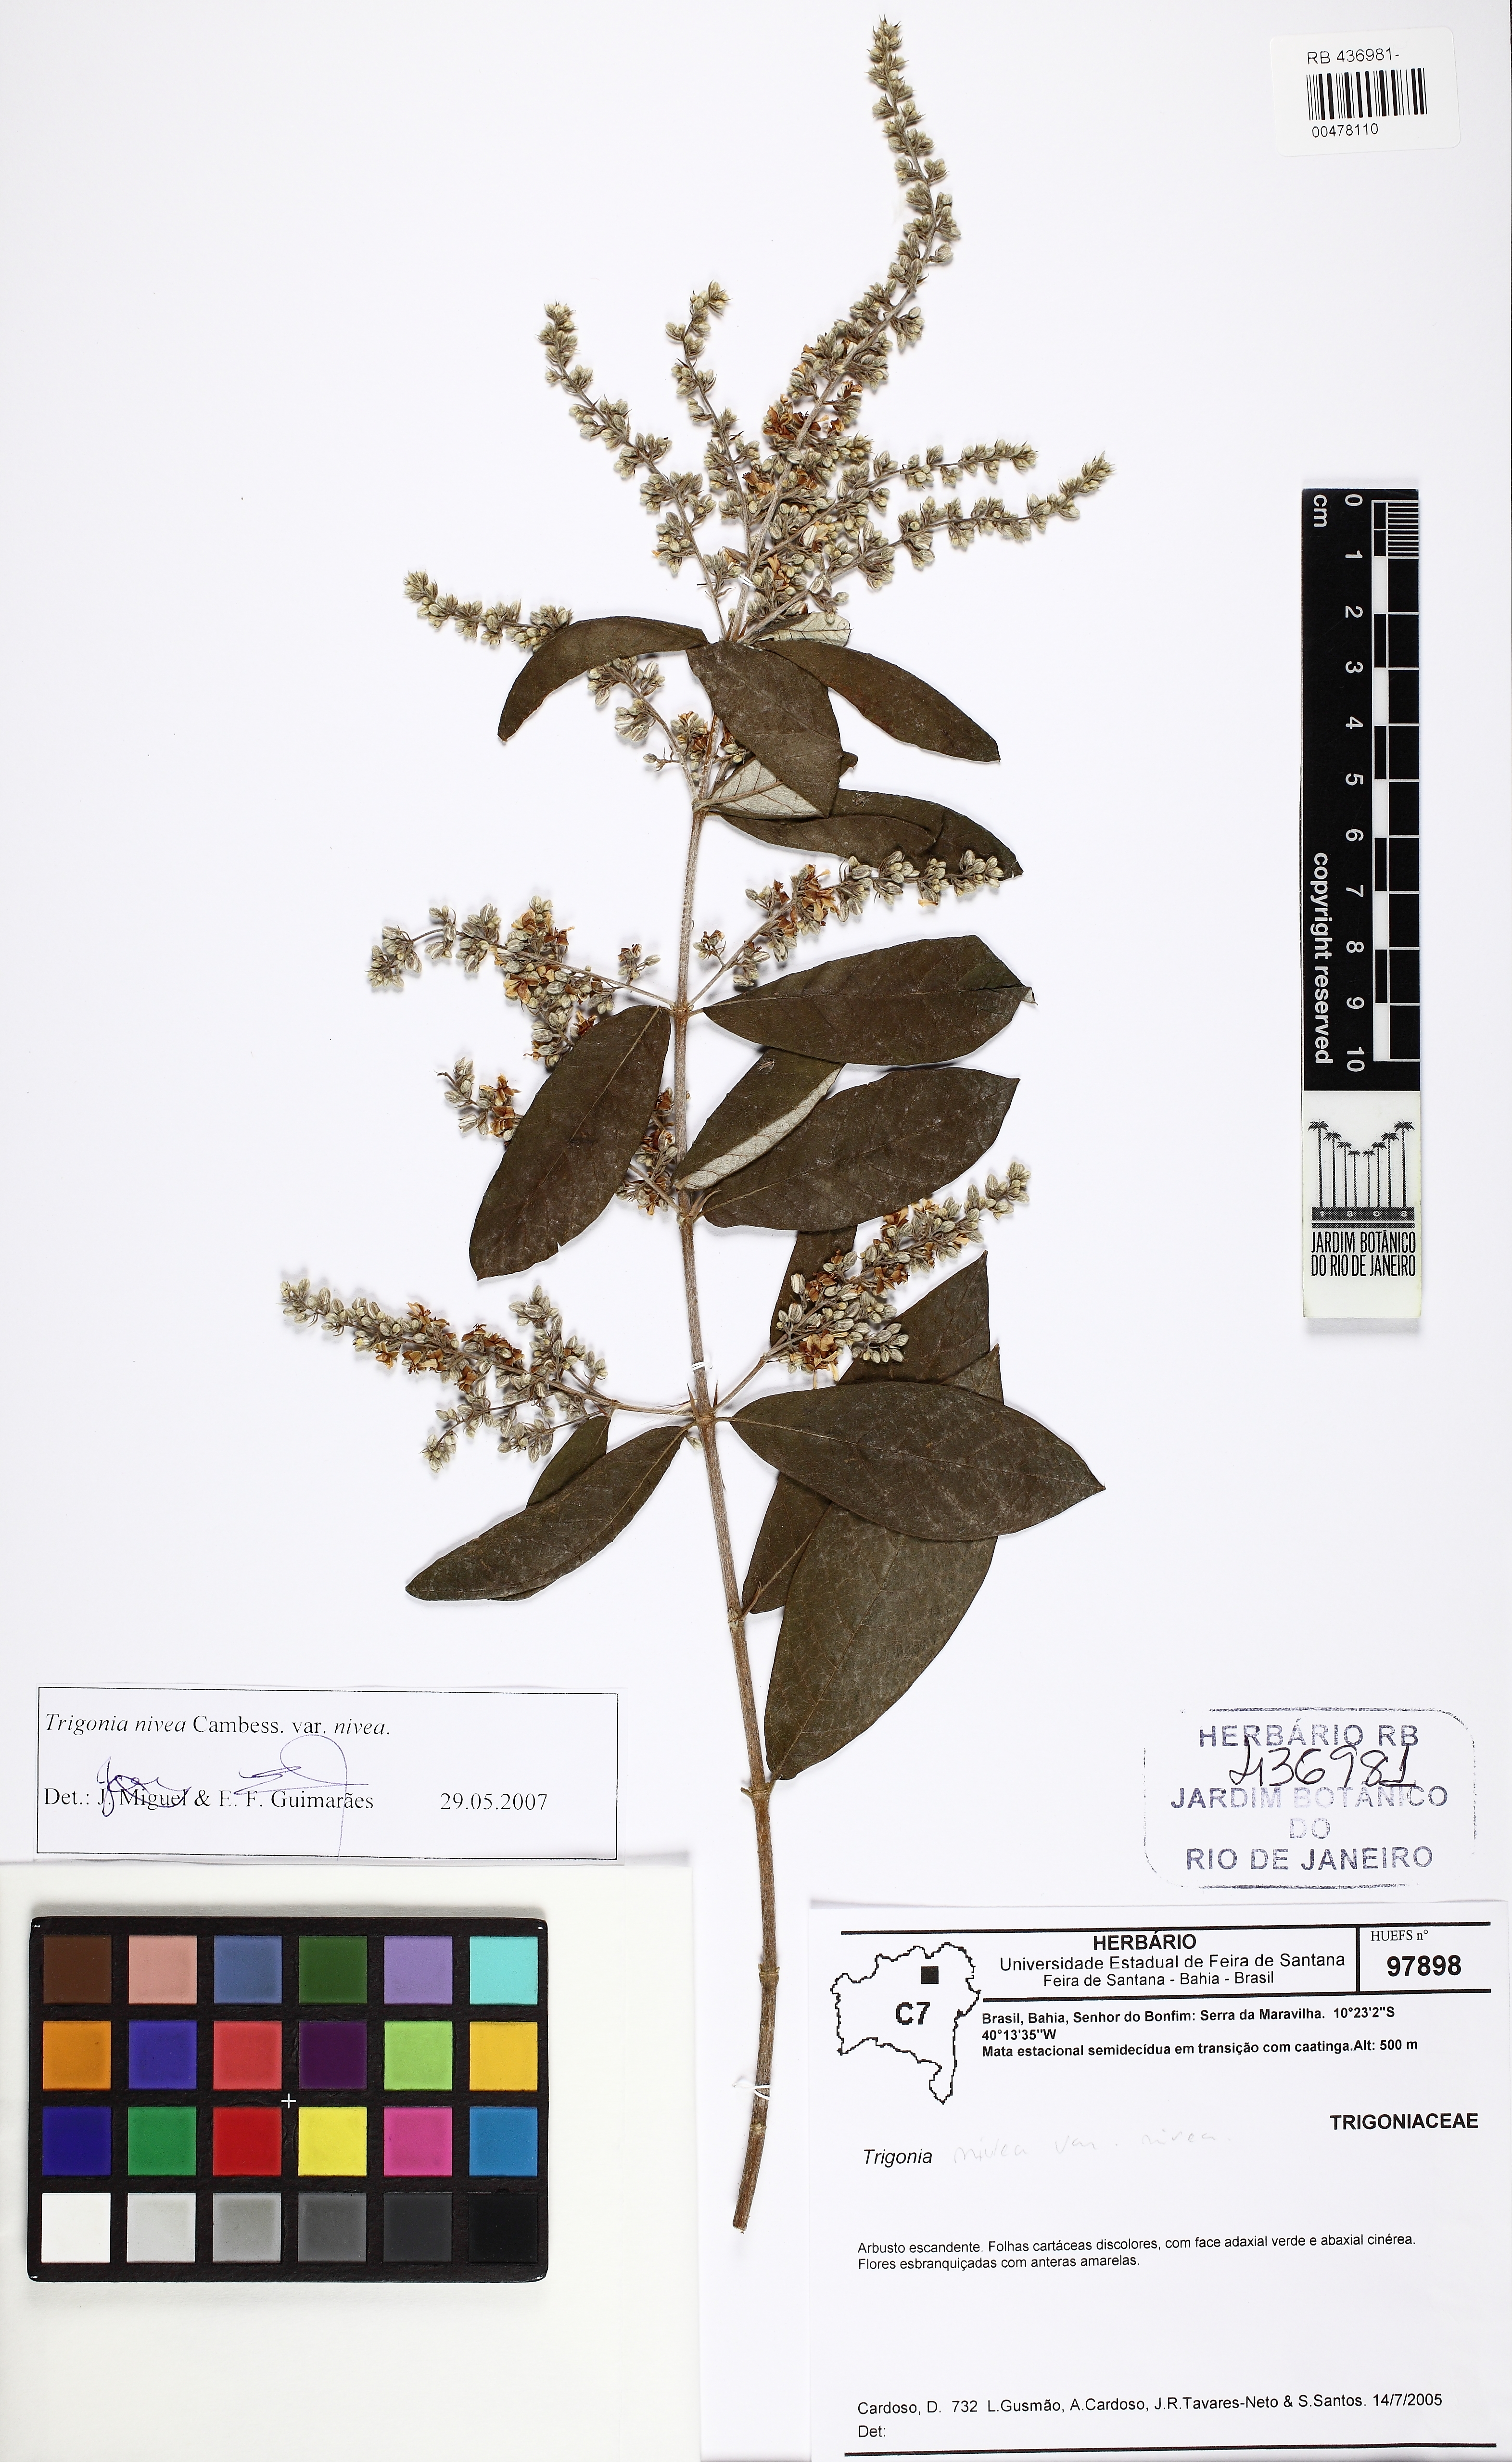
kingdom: Plantae
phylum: Tracheophyta
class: Magnoliopsida
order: Malpighiales
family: Trigoniaceae
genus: Trigonia
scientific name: Trigonia nivea
